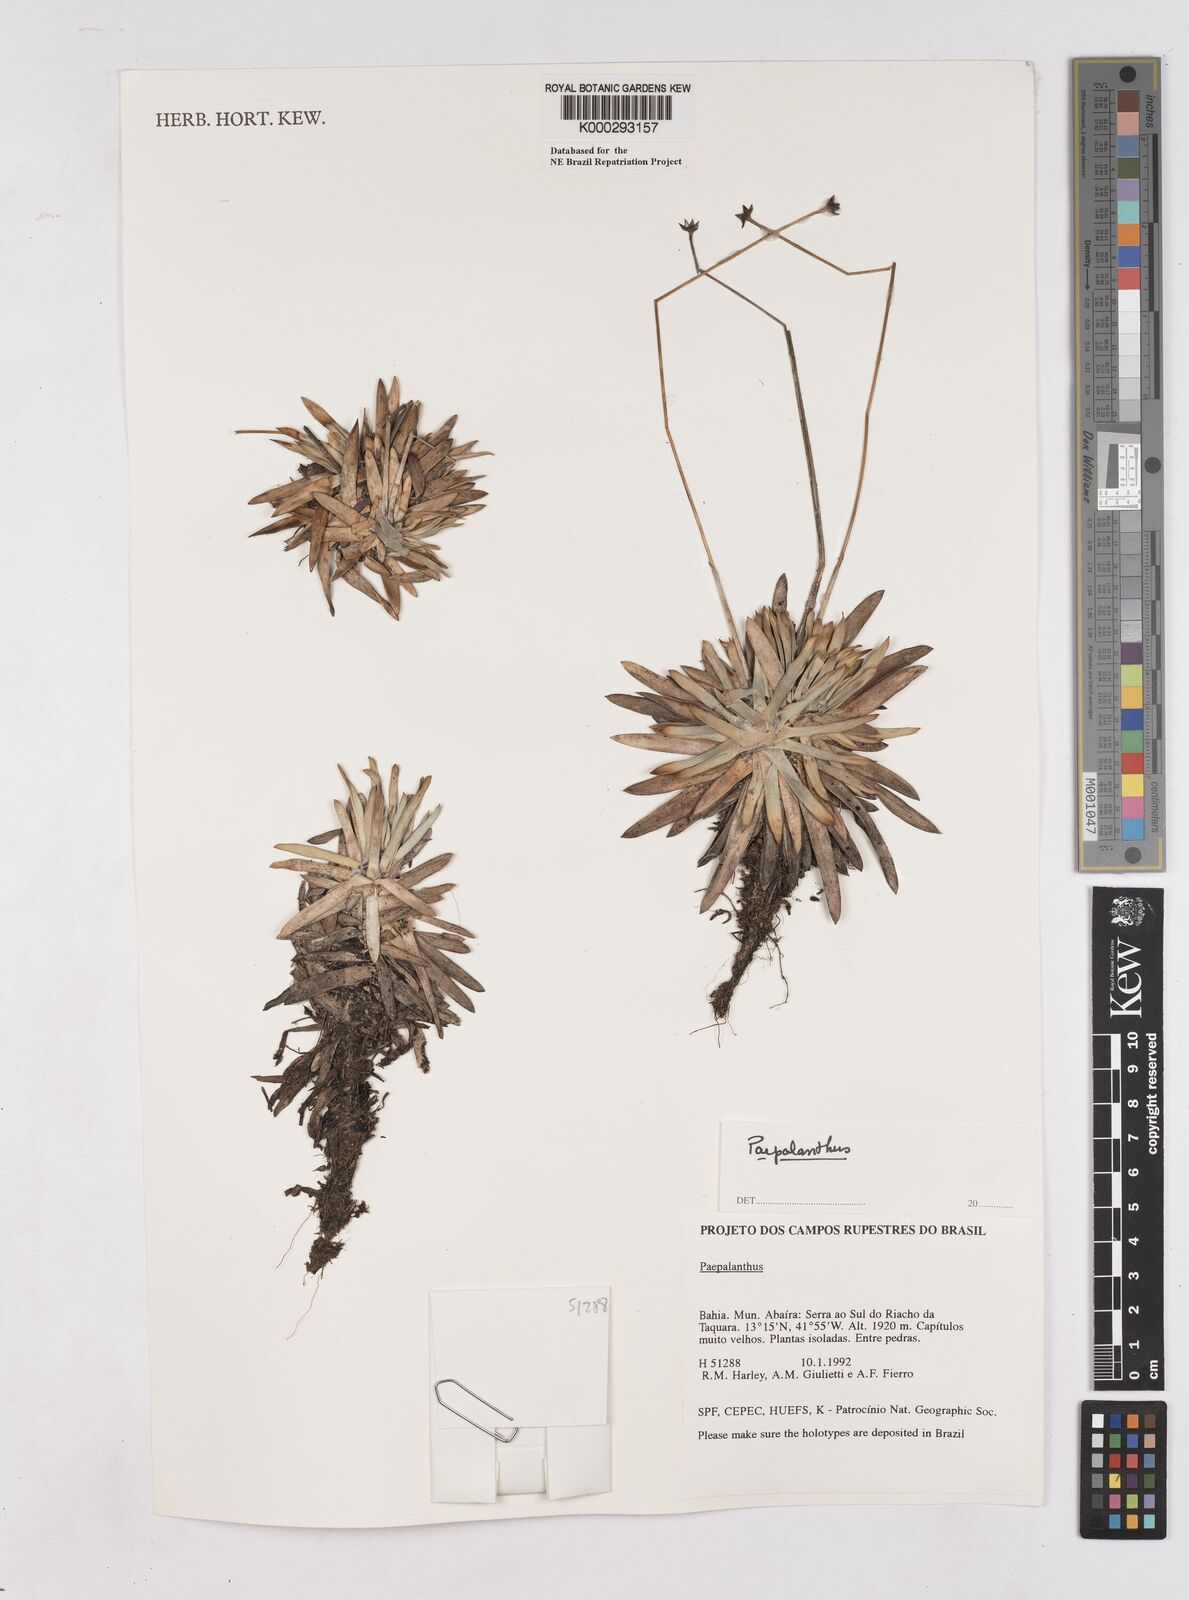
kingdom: Plantae
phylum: Tracheophyta
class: Liliopsida
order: Poales
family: Eriocaulaceae
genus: Paepalanthus
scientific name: Paepalanthus
